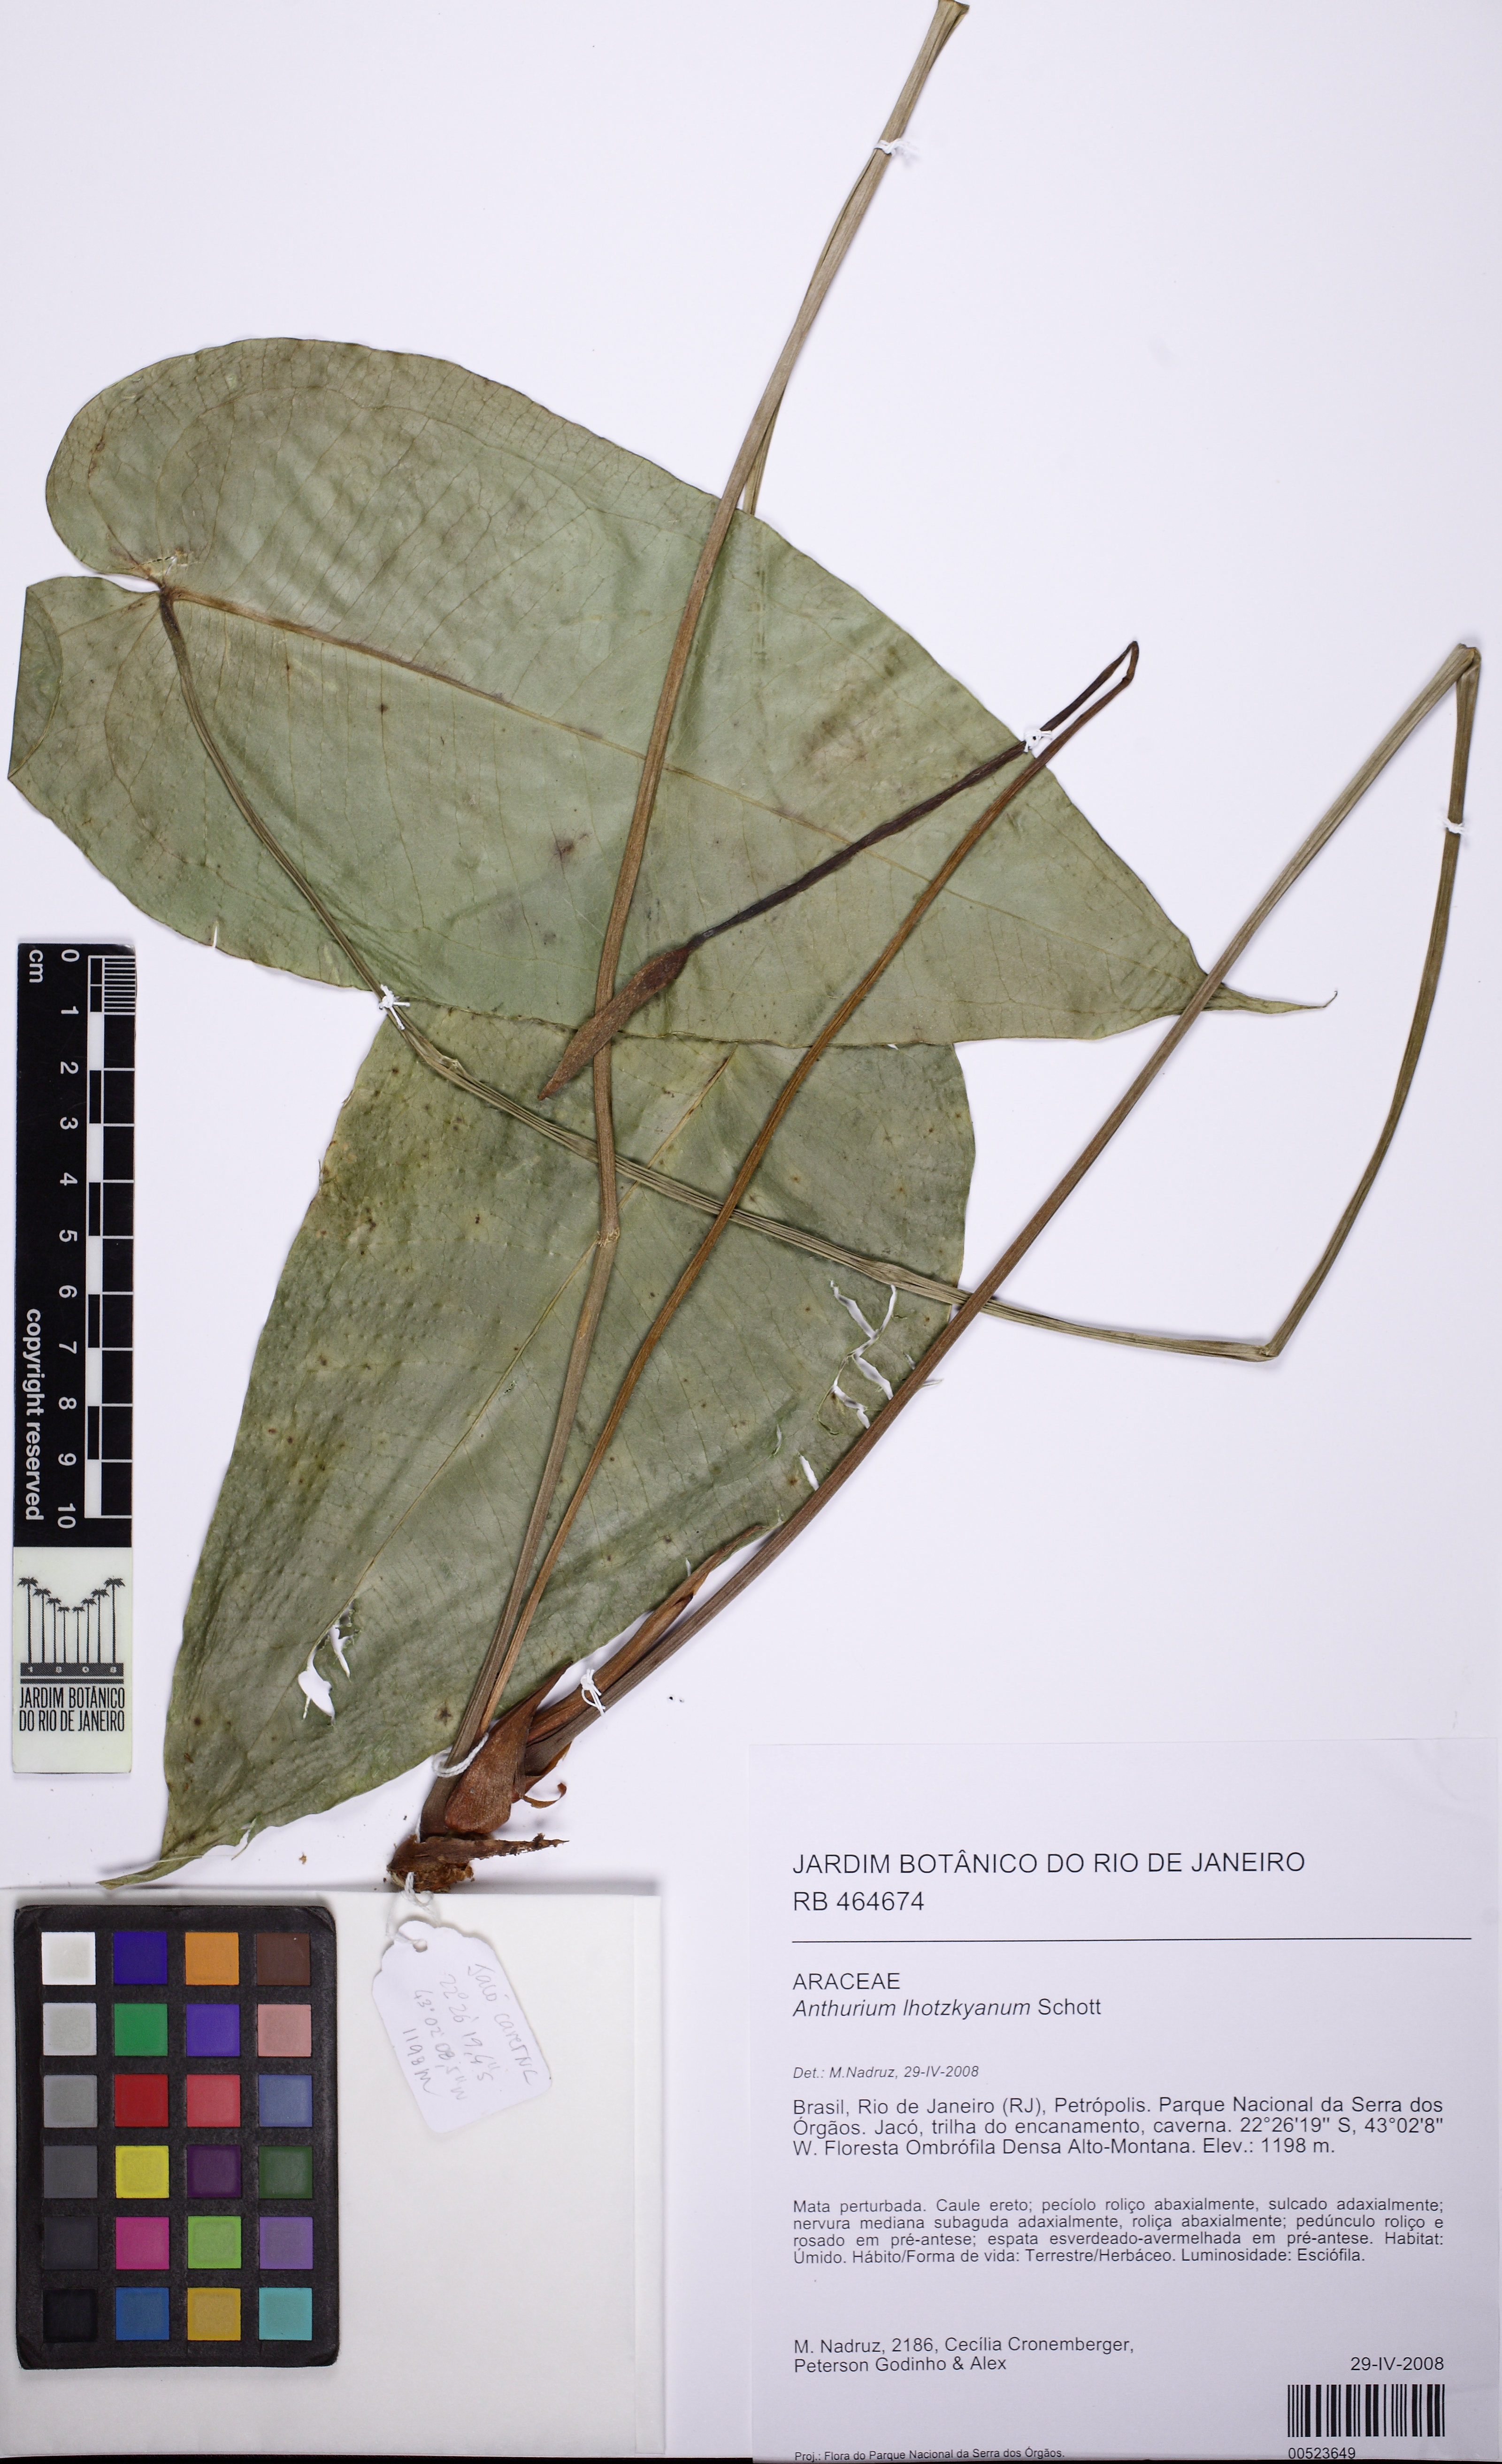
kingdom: Plantae
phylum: Tracheophyta
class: Liliopsida
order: Alismatales
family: Araceae
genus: Anthurium
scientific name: Anthurium augustinum
